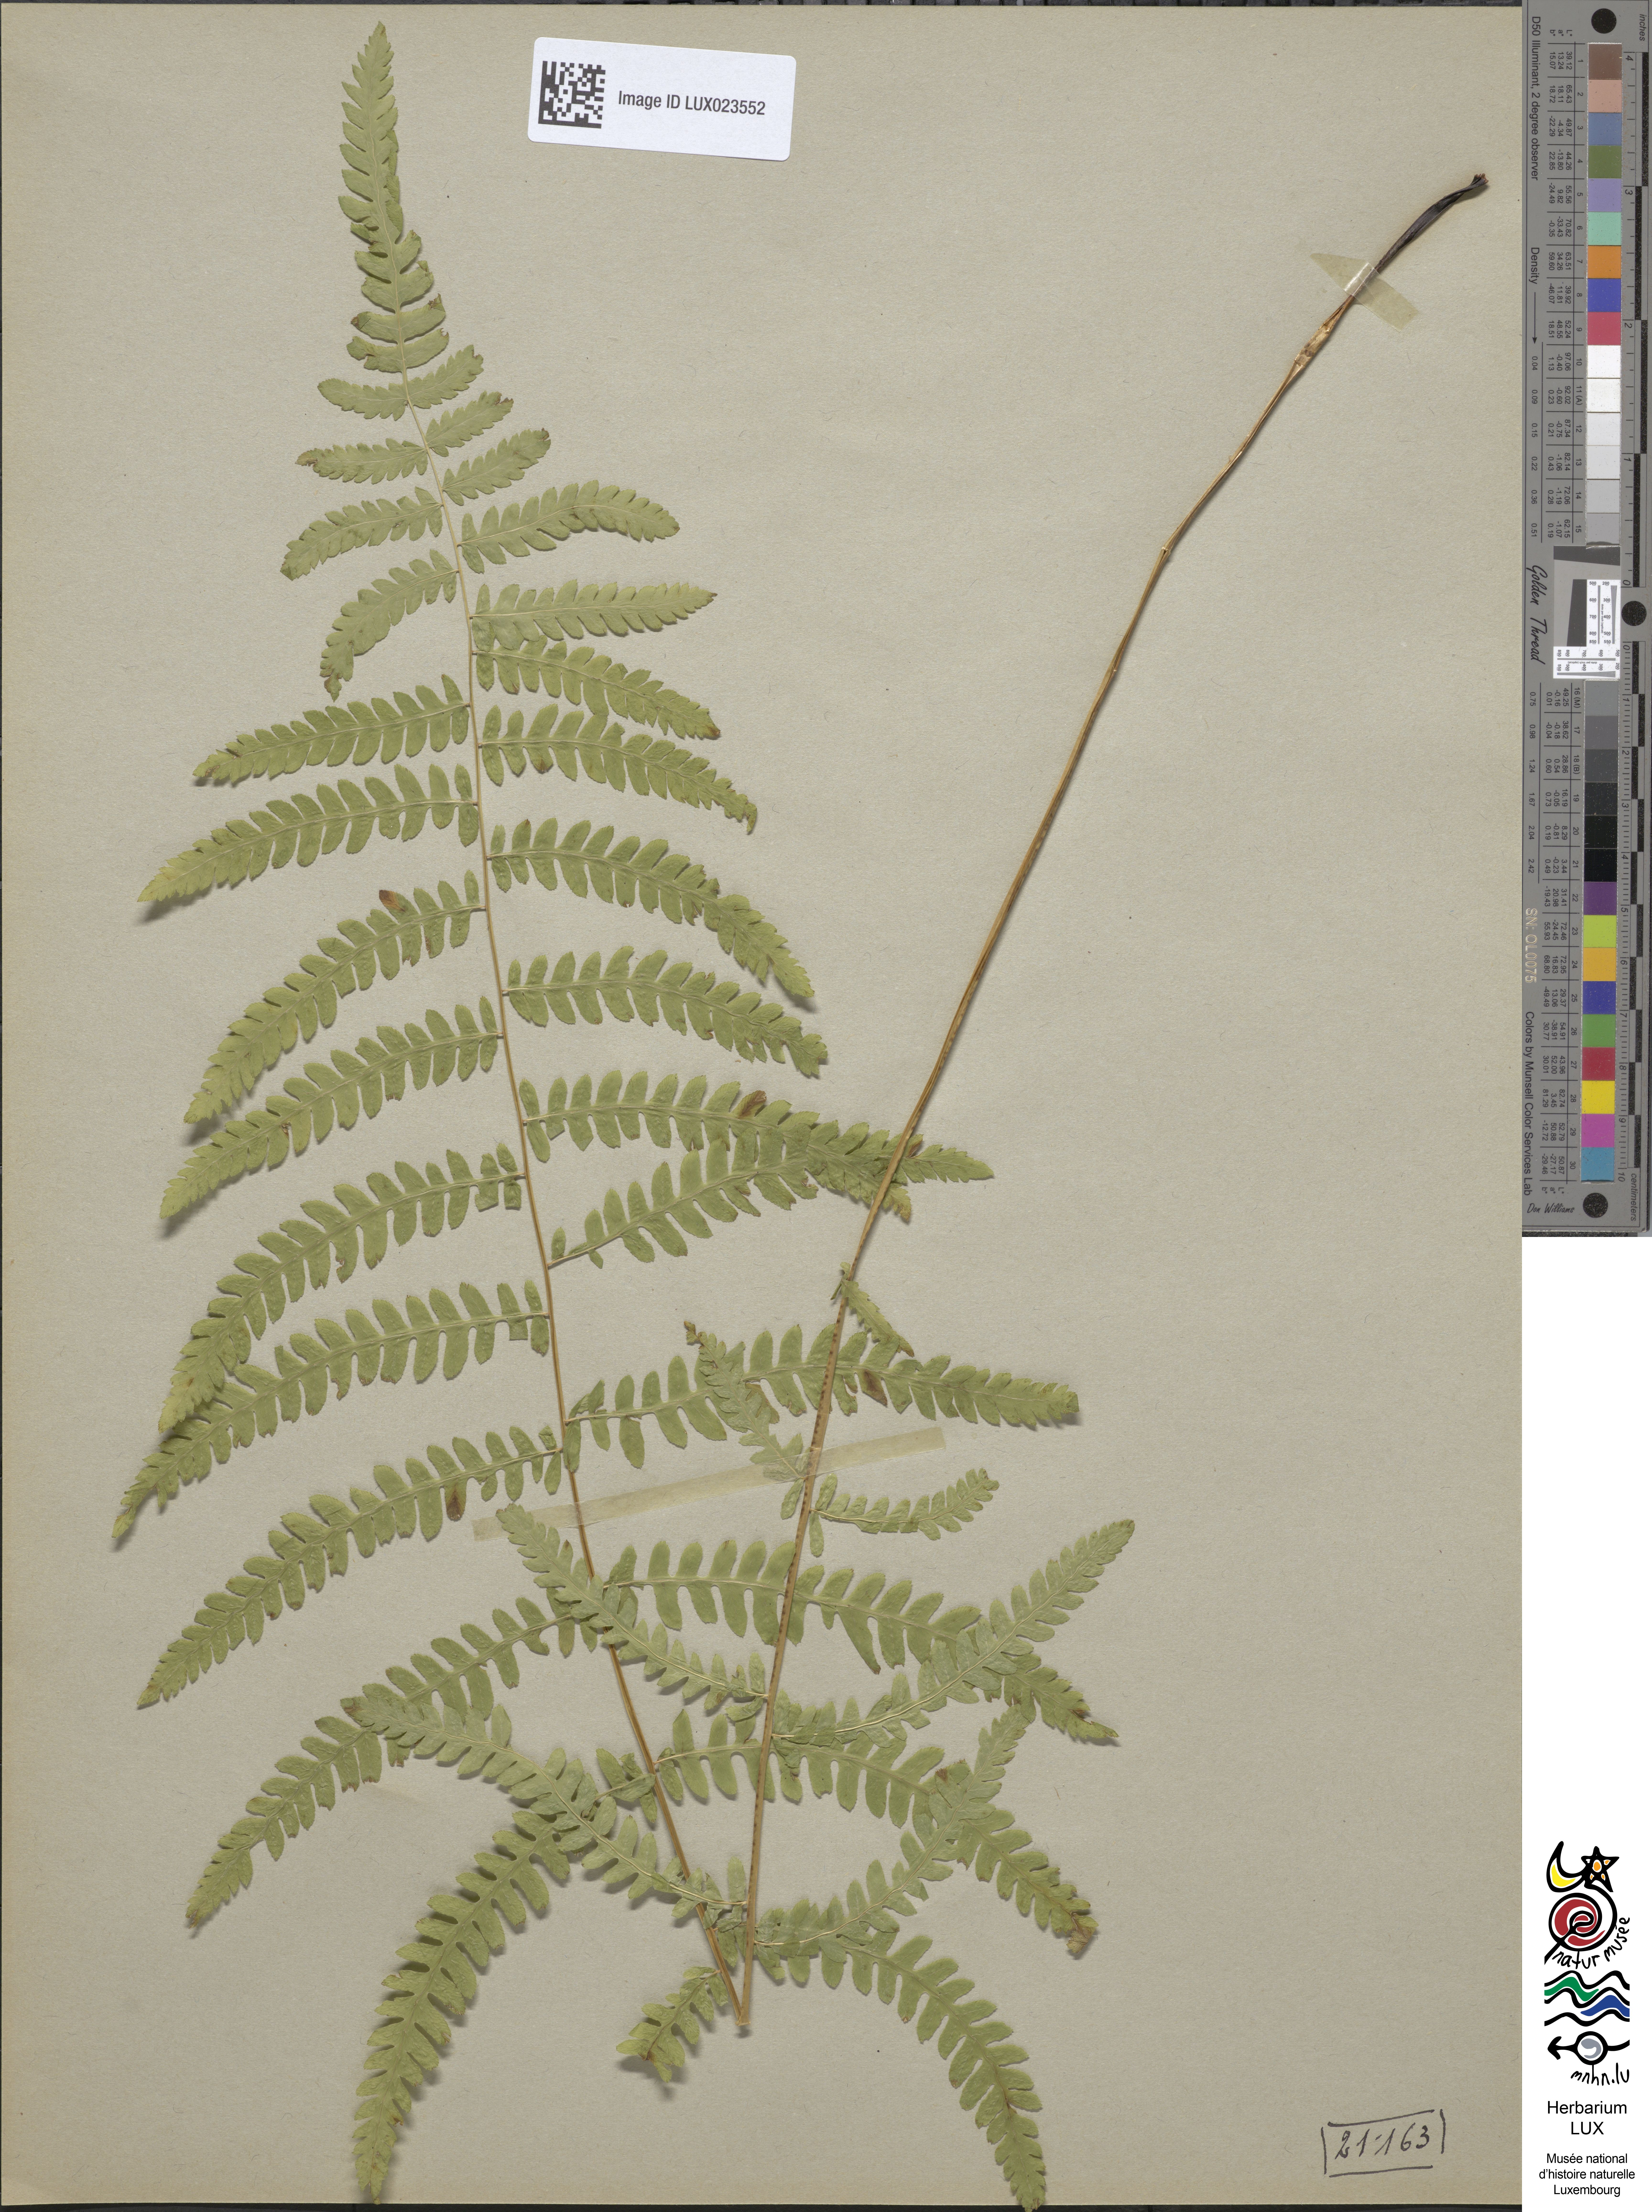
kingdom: Plantae
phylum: Tracheophyta
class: Polypodiopsida
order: Polypodiales
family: Thelypteridaceae
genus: Thelypteris
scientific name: Thelypteris palustris
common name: Marsh fern
